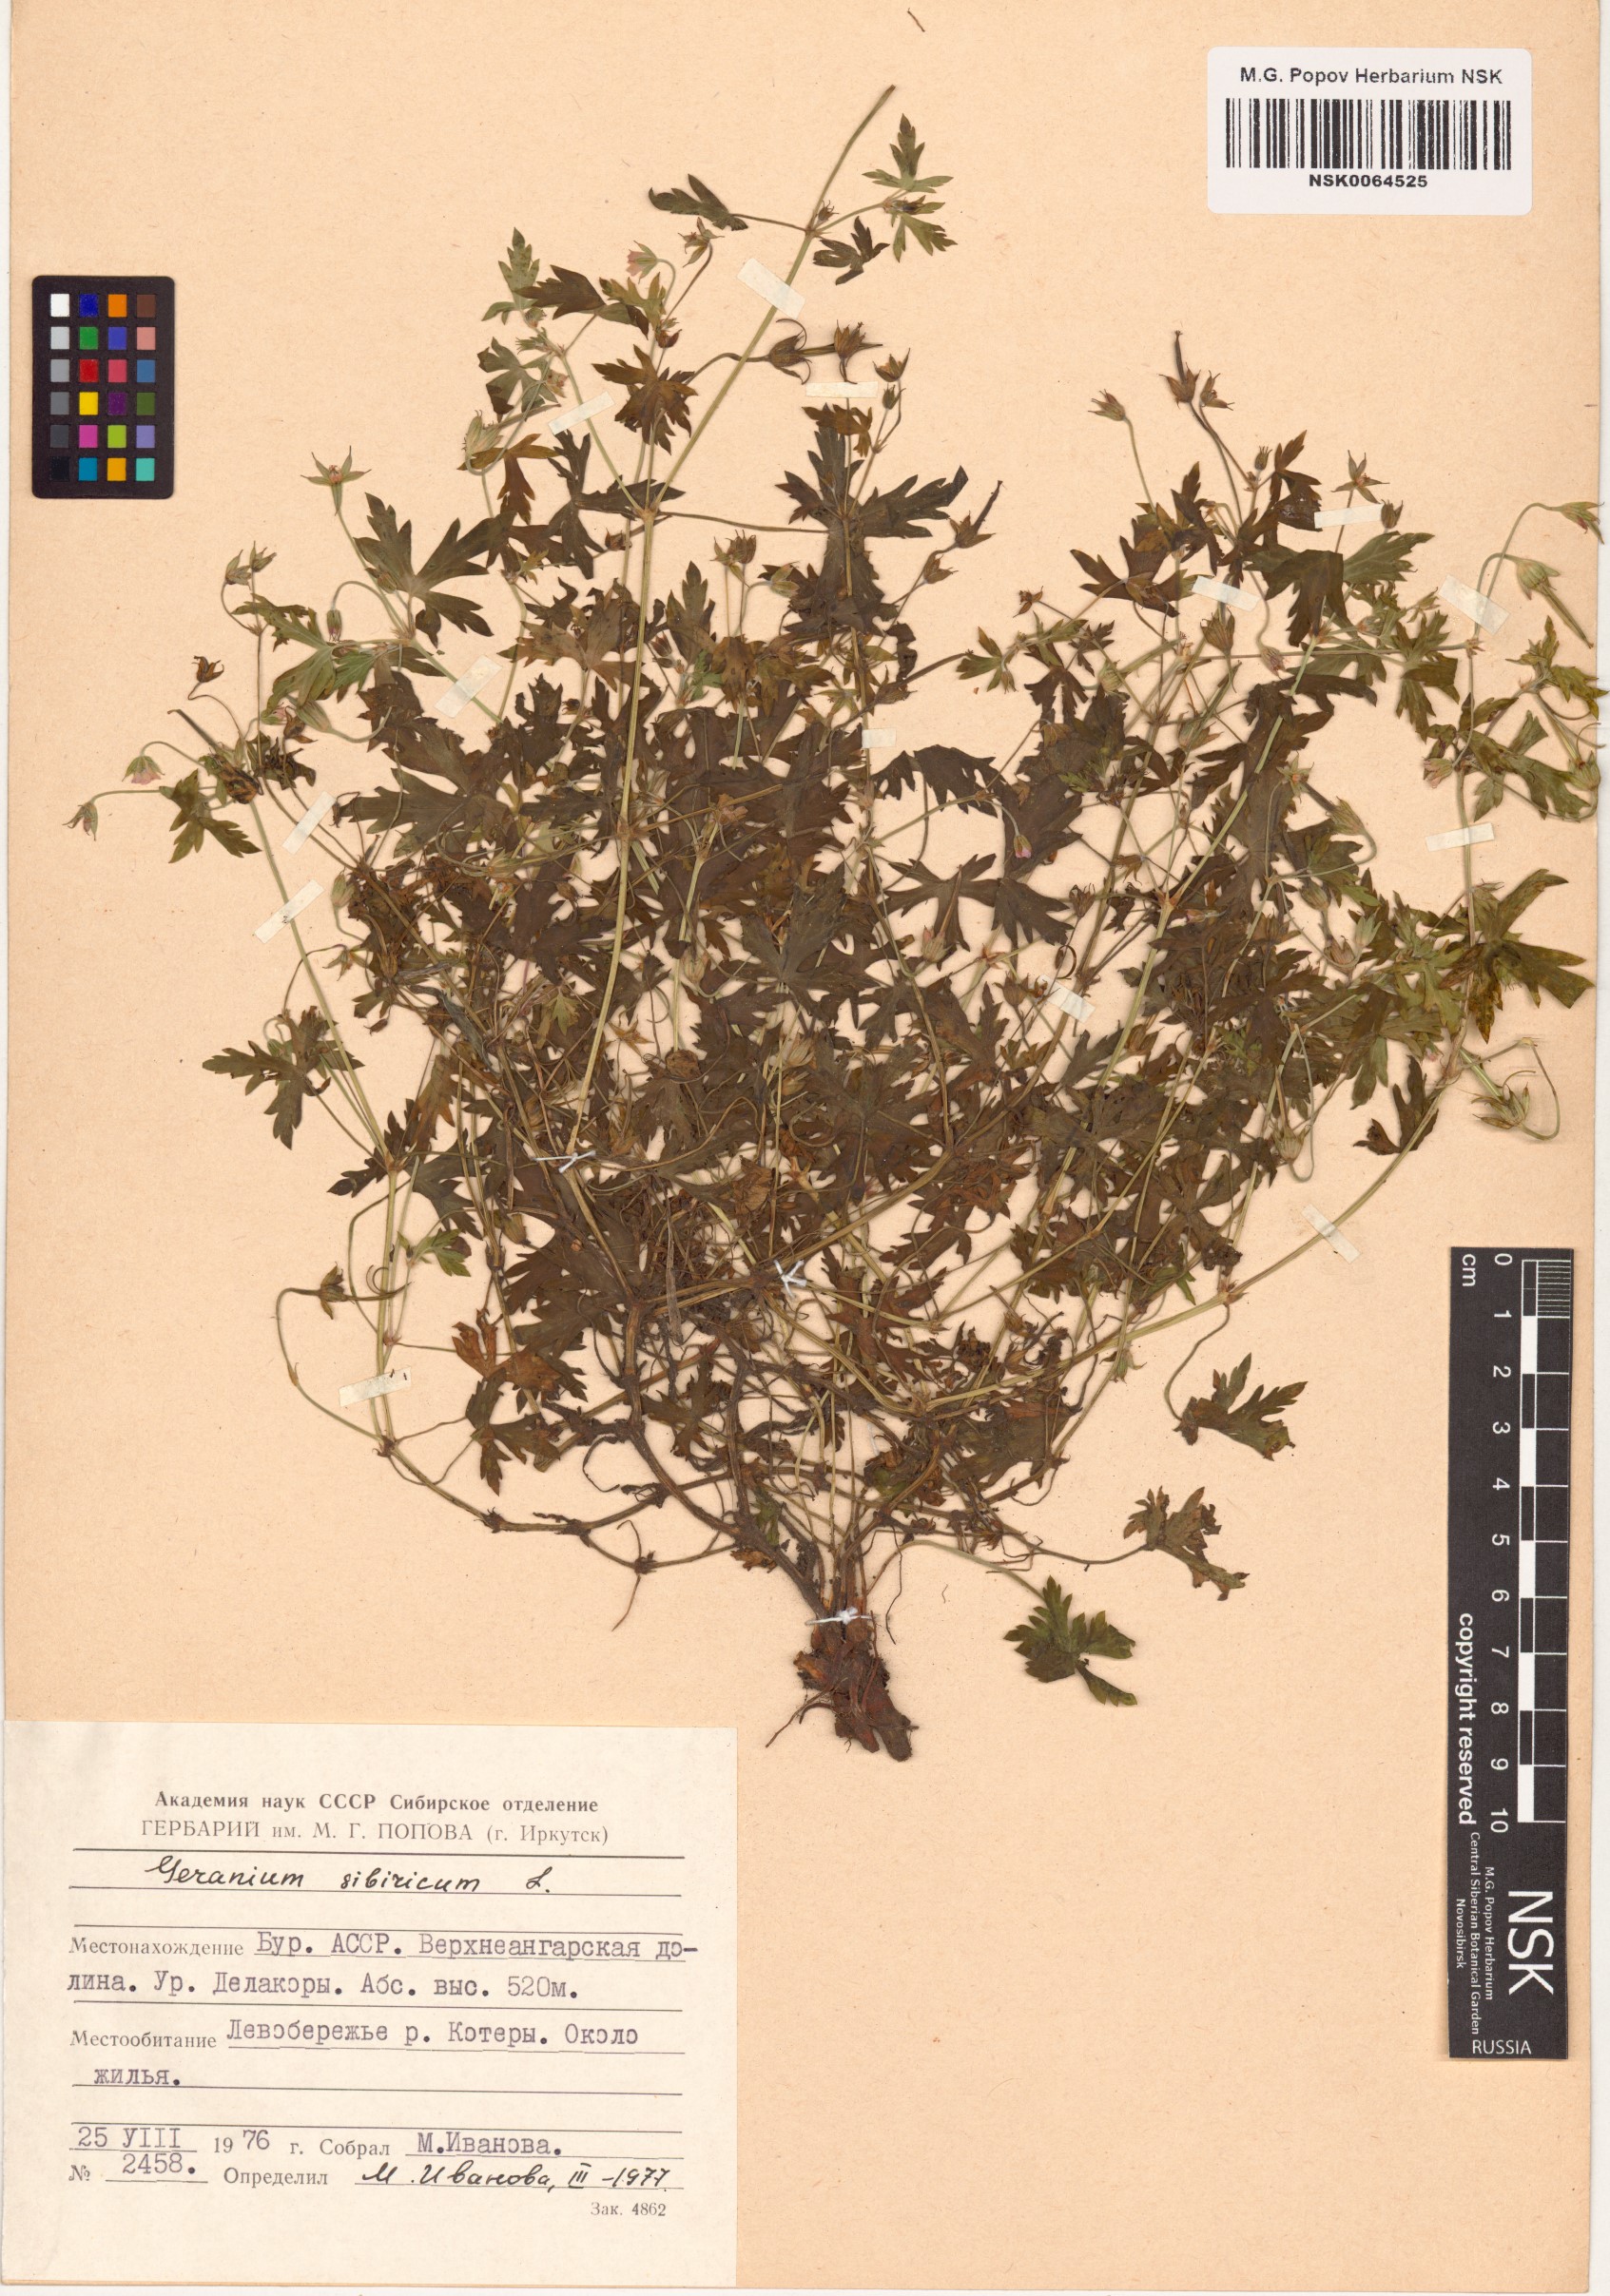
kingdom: Plantae
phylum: Tracheophyta
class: Magnoliopsida
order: Geraniales
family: Geraniaceae
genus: Geranium
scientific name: Geranium sibiricum
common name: Siberian crane's-bill
